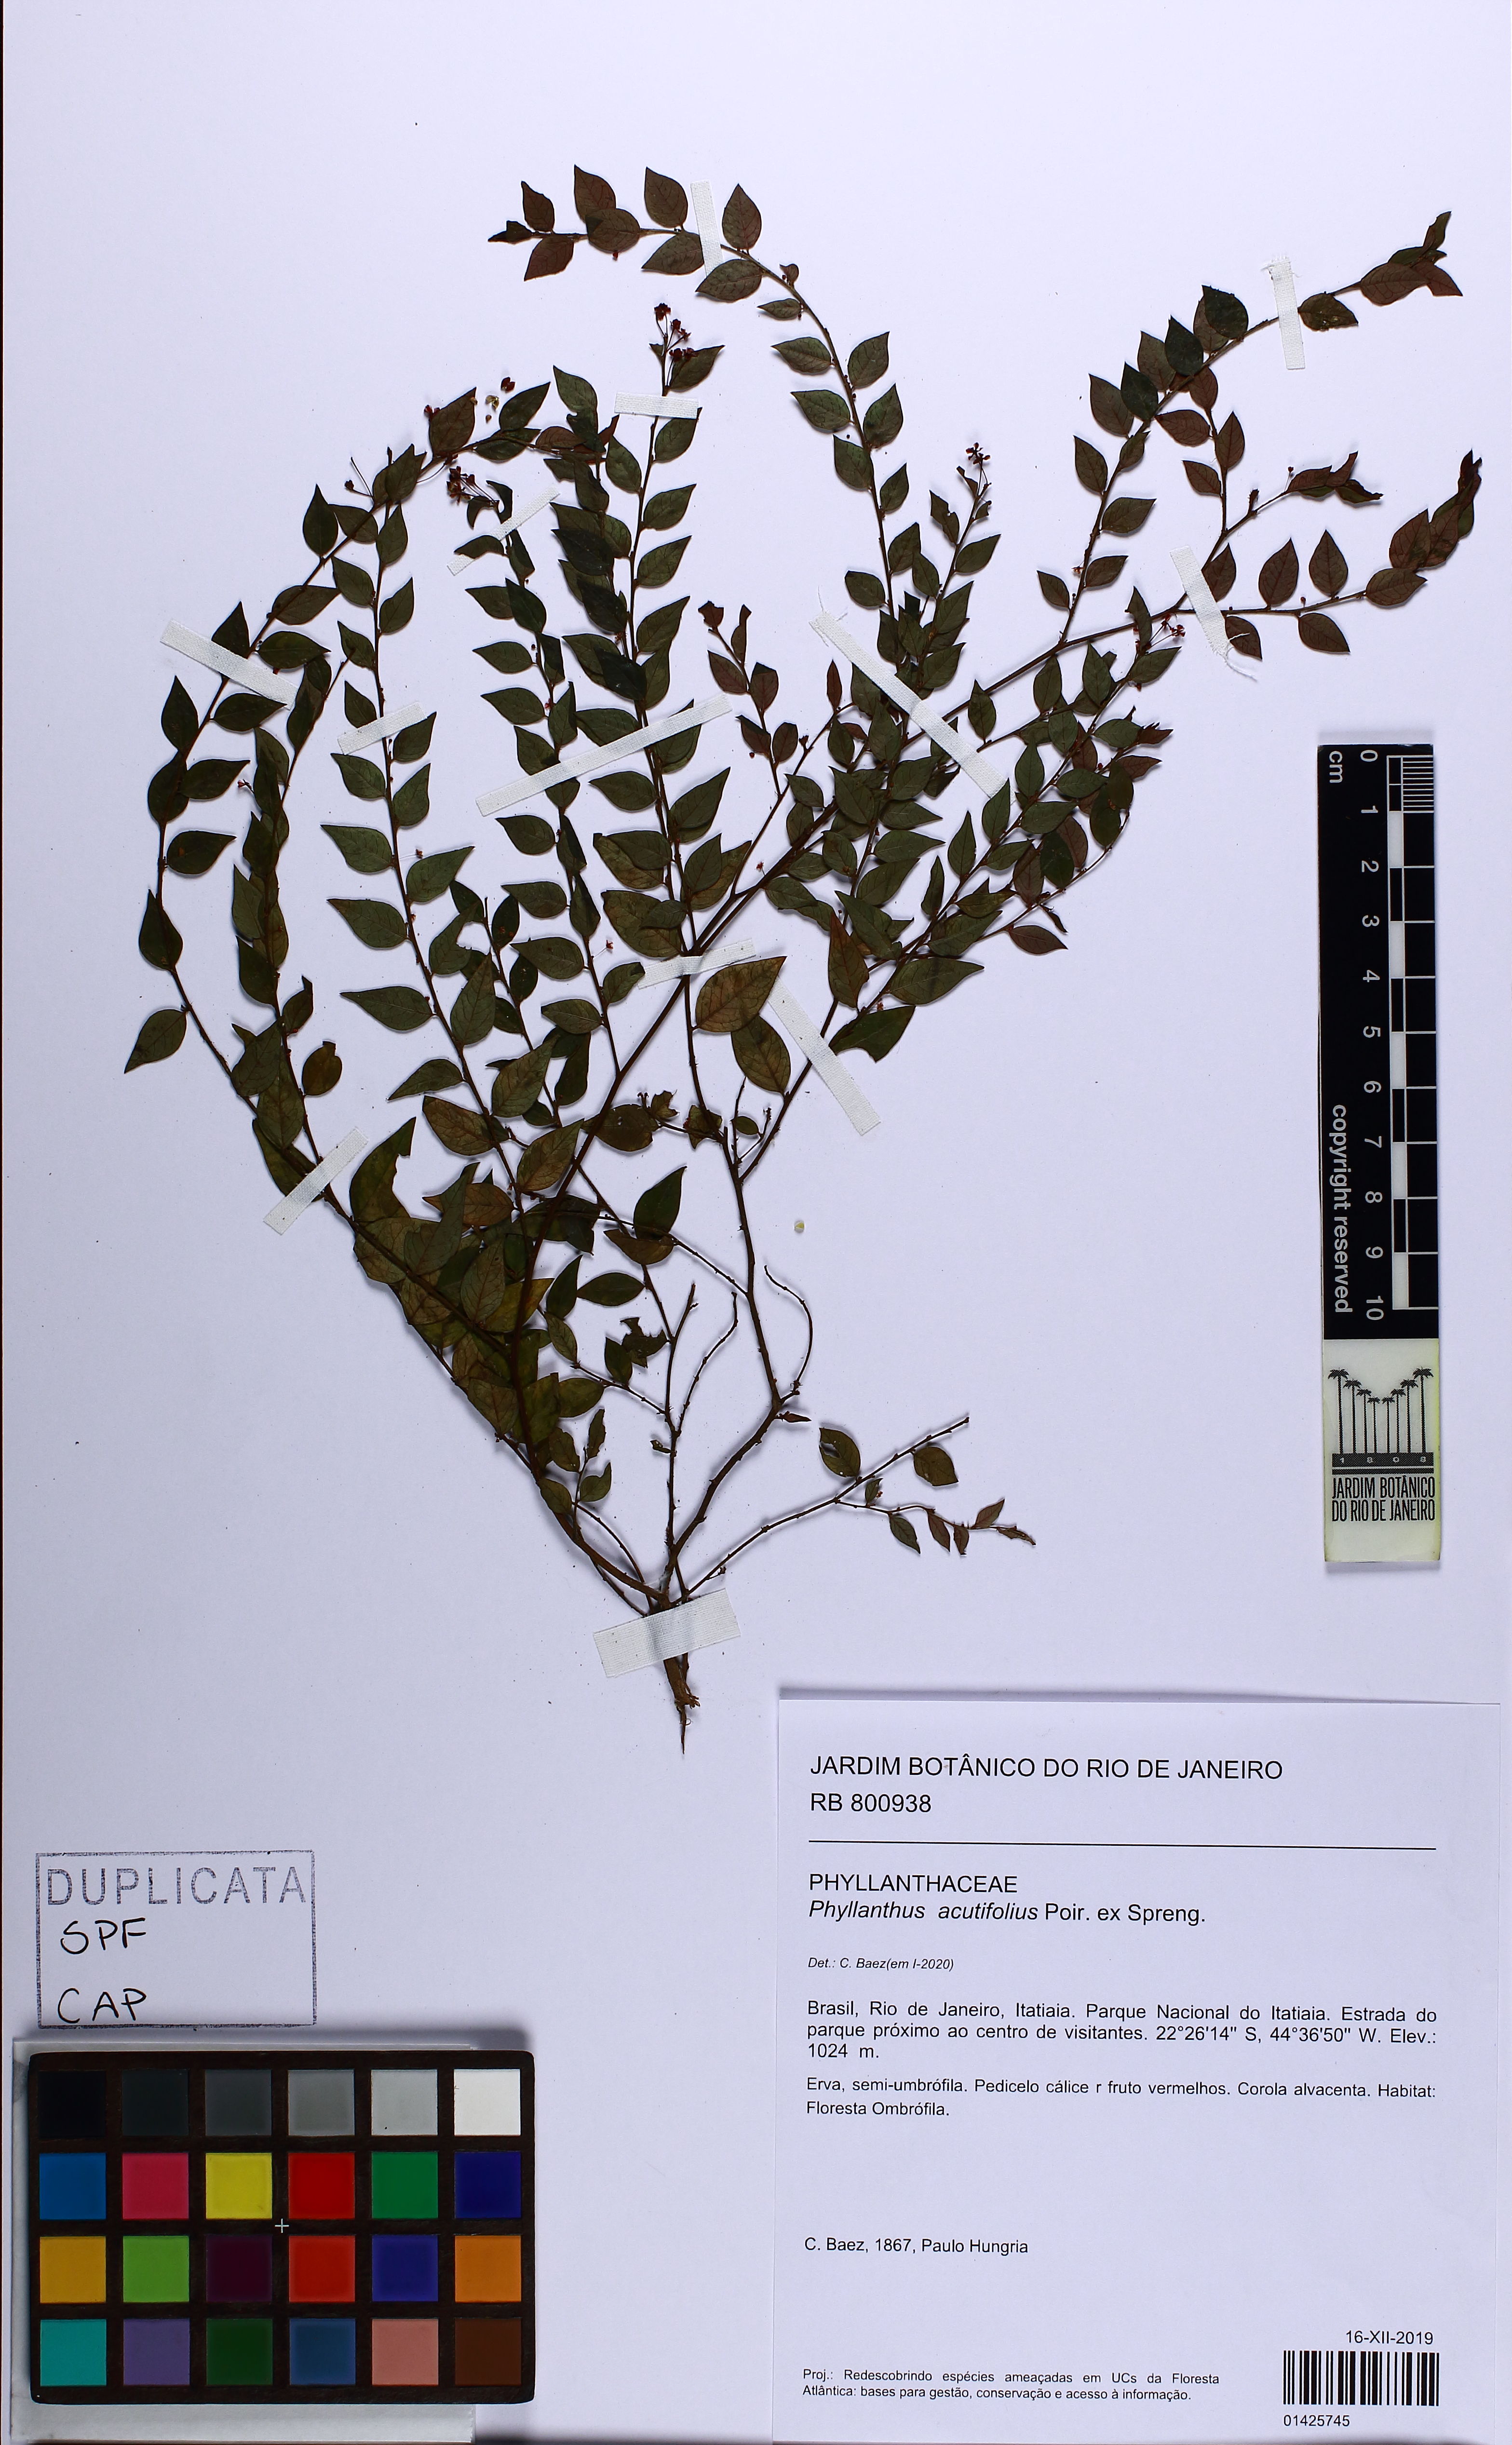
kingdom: Plantae
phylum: Tracheophyta
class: Magnoliopsida
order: Malpighiales
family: Phyllanthaceae
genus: Phyllanthus
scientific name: Phyllanthus acutifolius
